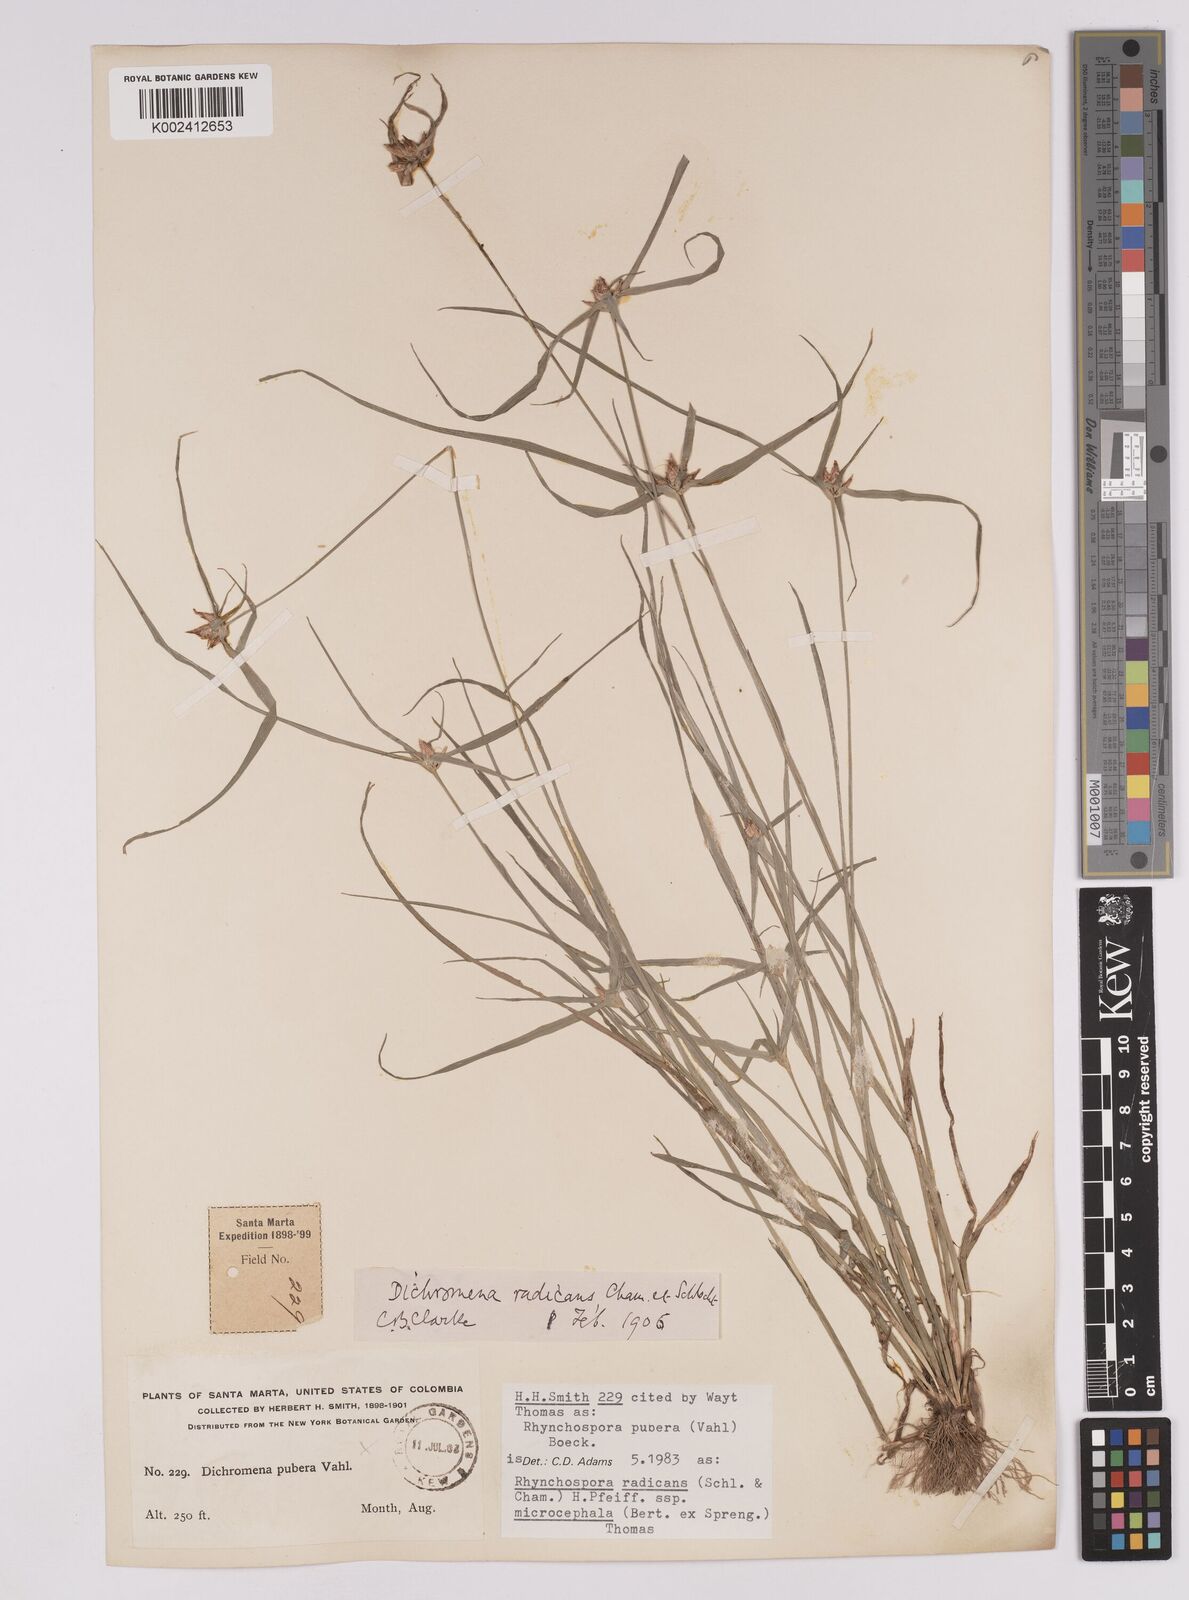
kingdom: Plantae
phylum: Tracheophyta
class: Liliopsida
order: Poales
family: Cyperaceae
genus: Rhynchospora
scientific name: Rhynchospora radicans
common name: Tropical whitetop
